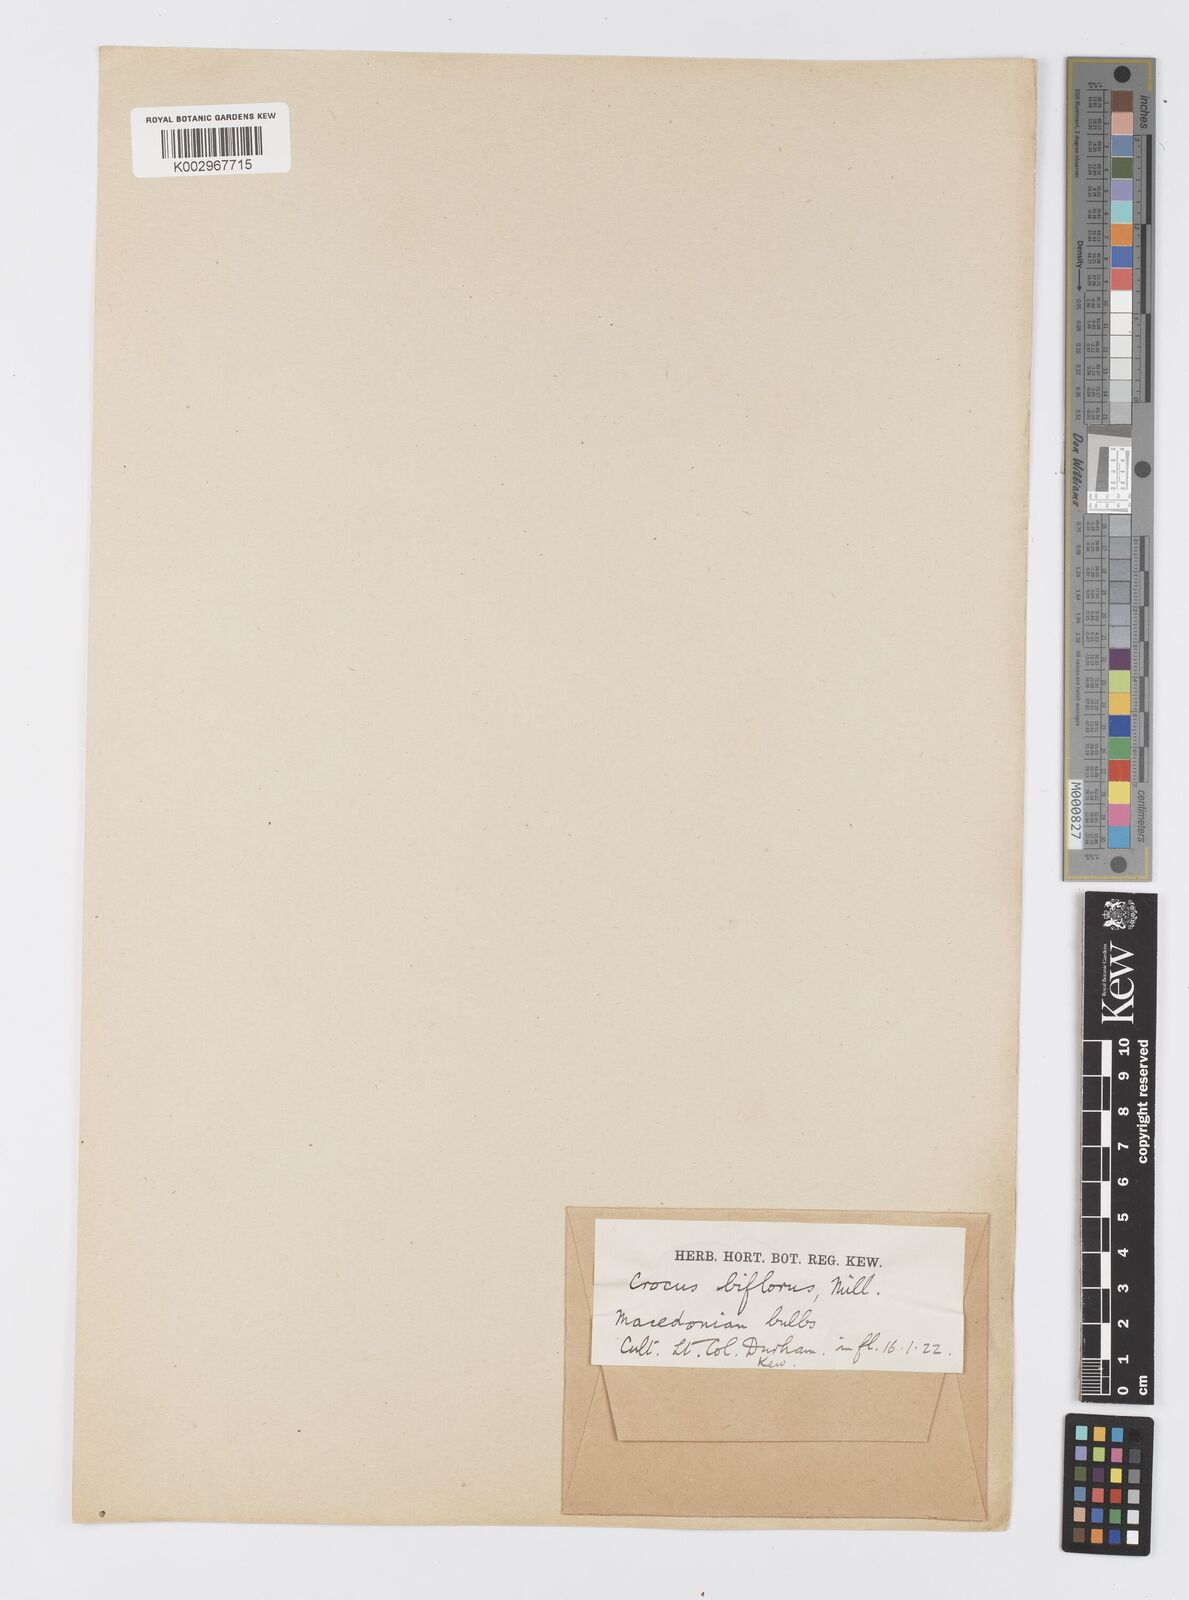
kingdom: Plantae
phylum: Tracheophyta
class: Liliopsida
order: Asparagales
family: Iridaceae
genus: Crocus
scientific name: Crocus stridii
